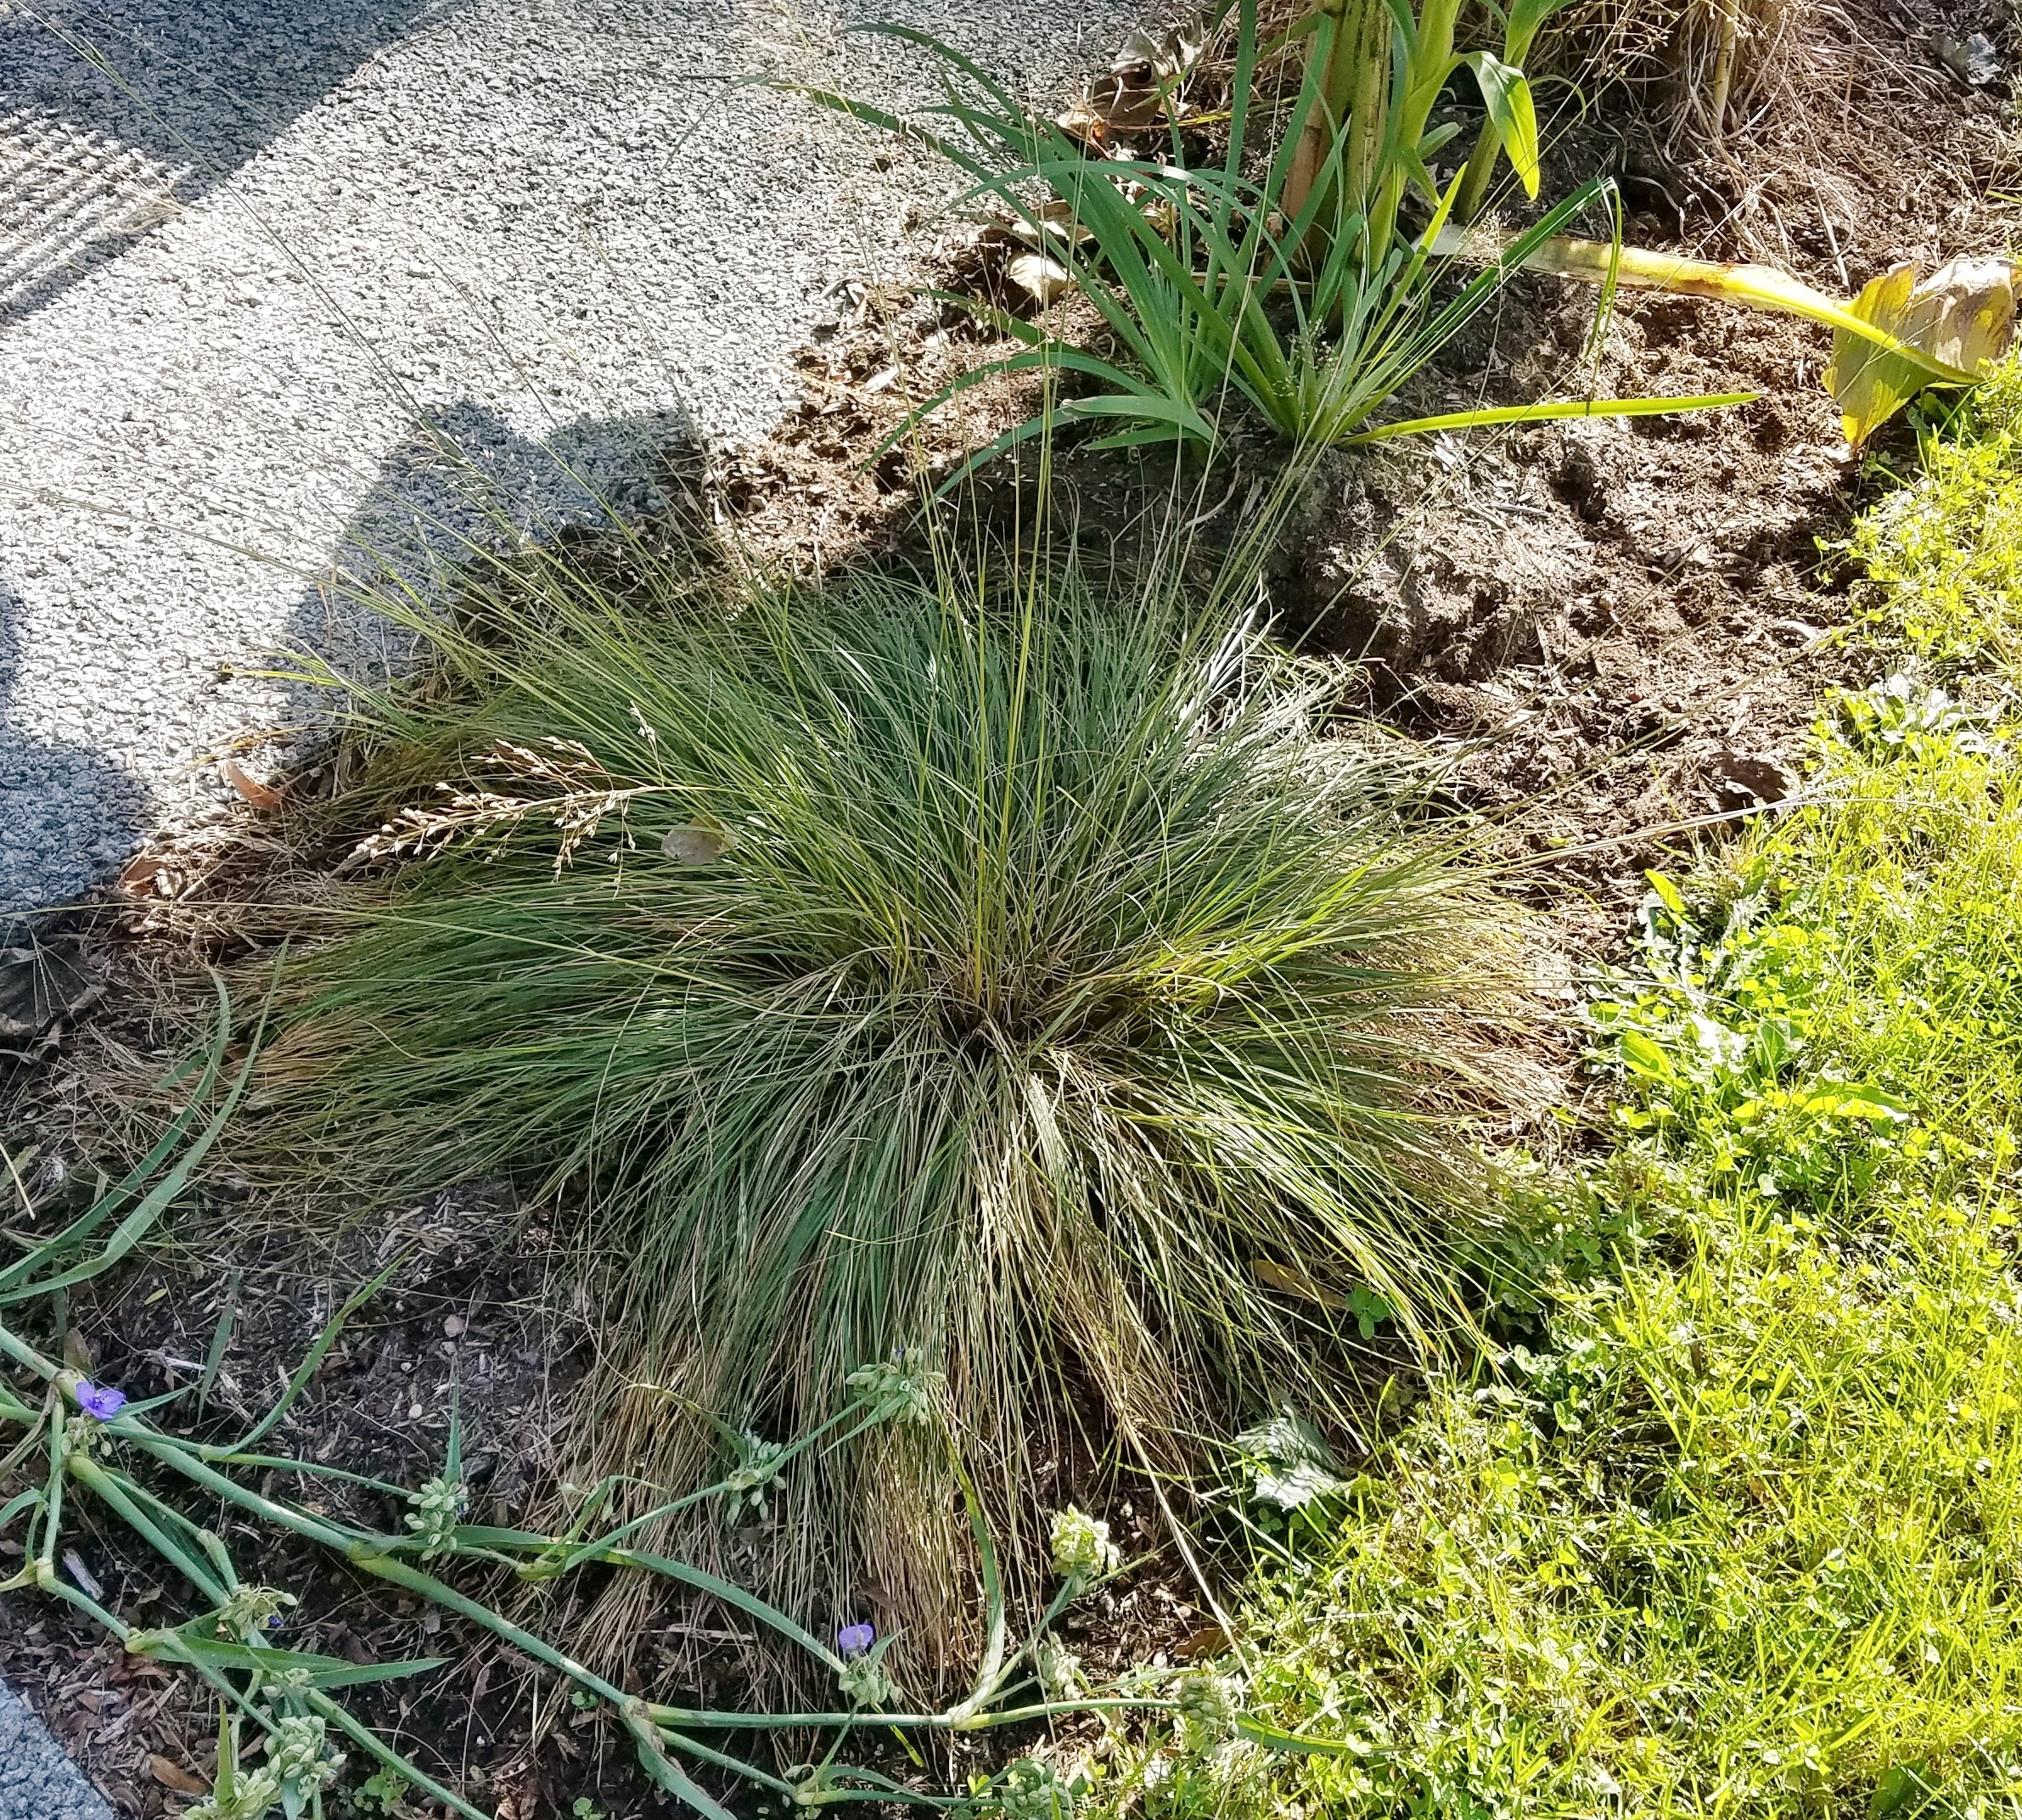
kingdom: Plantae
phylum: Tracheophyta
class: Liliopsida
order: Poales
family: Poaceae
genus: Sporobolus
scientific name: Sporobolus heterolepis
